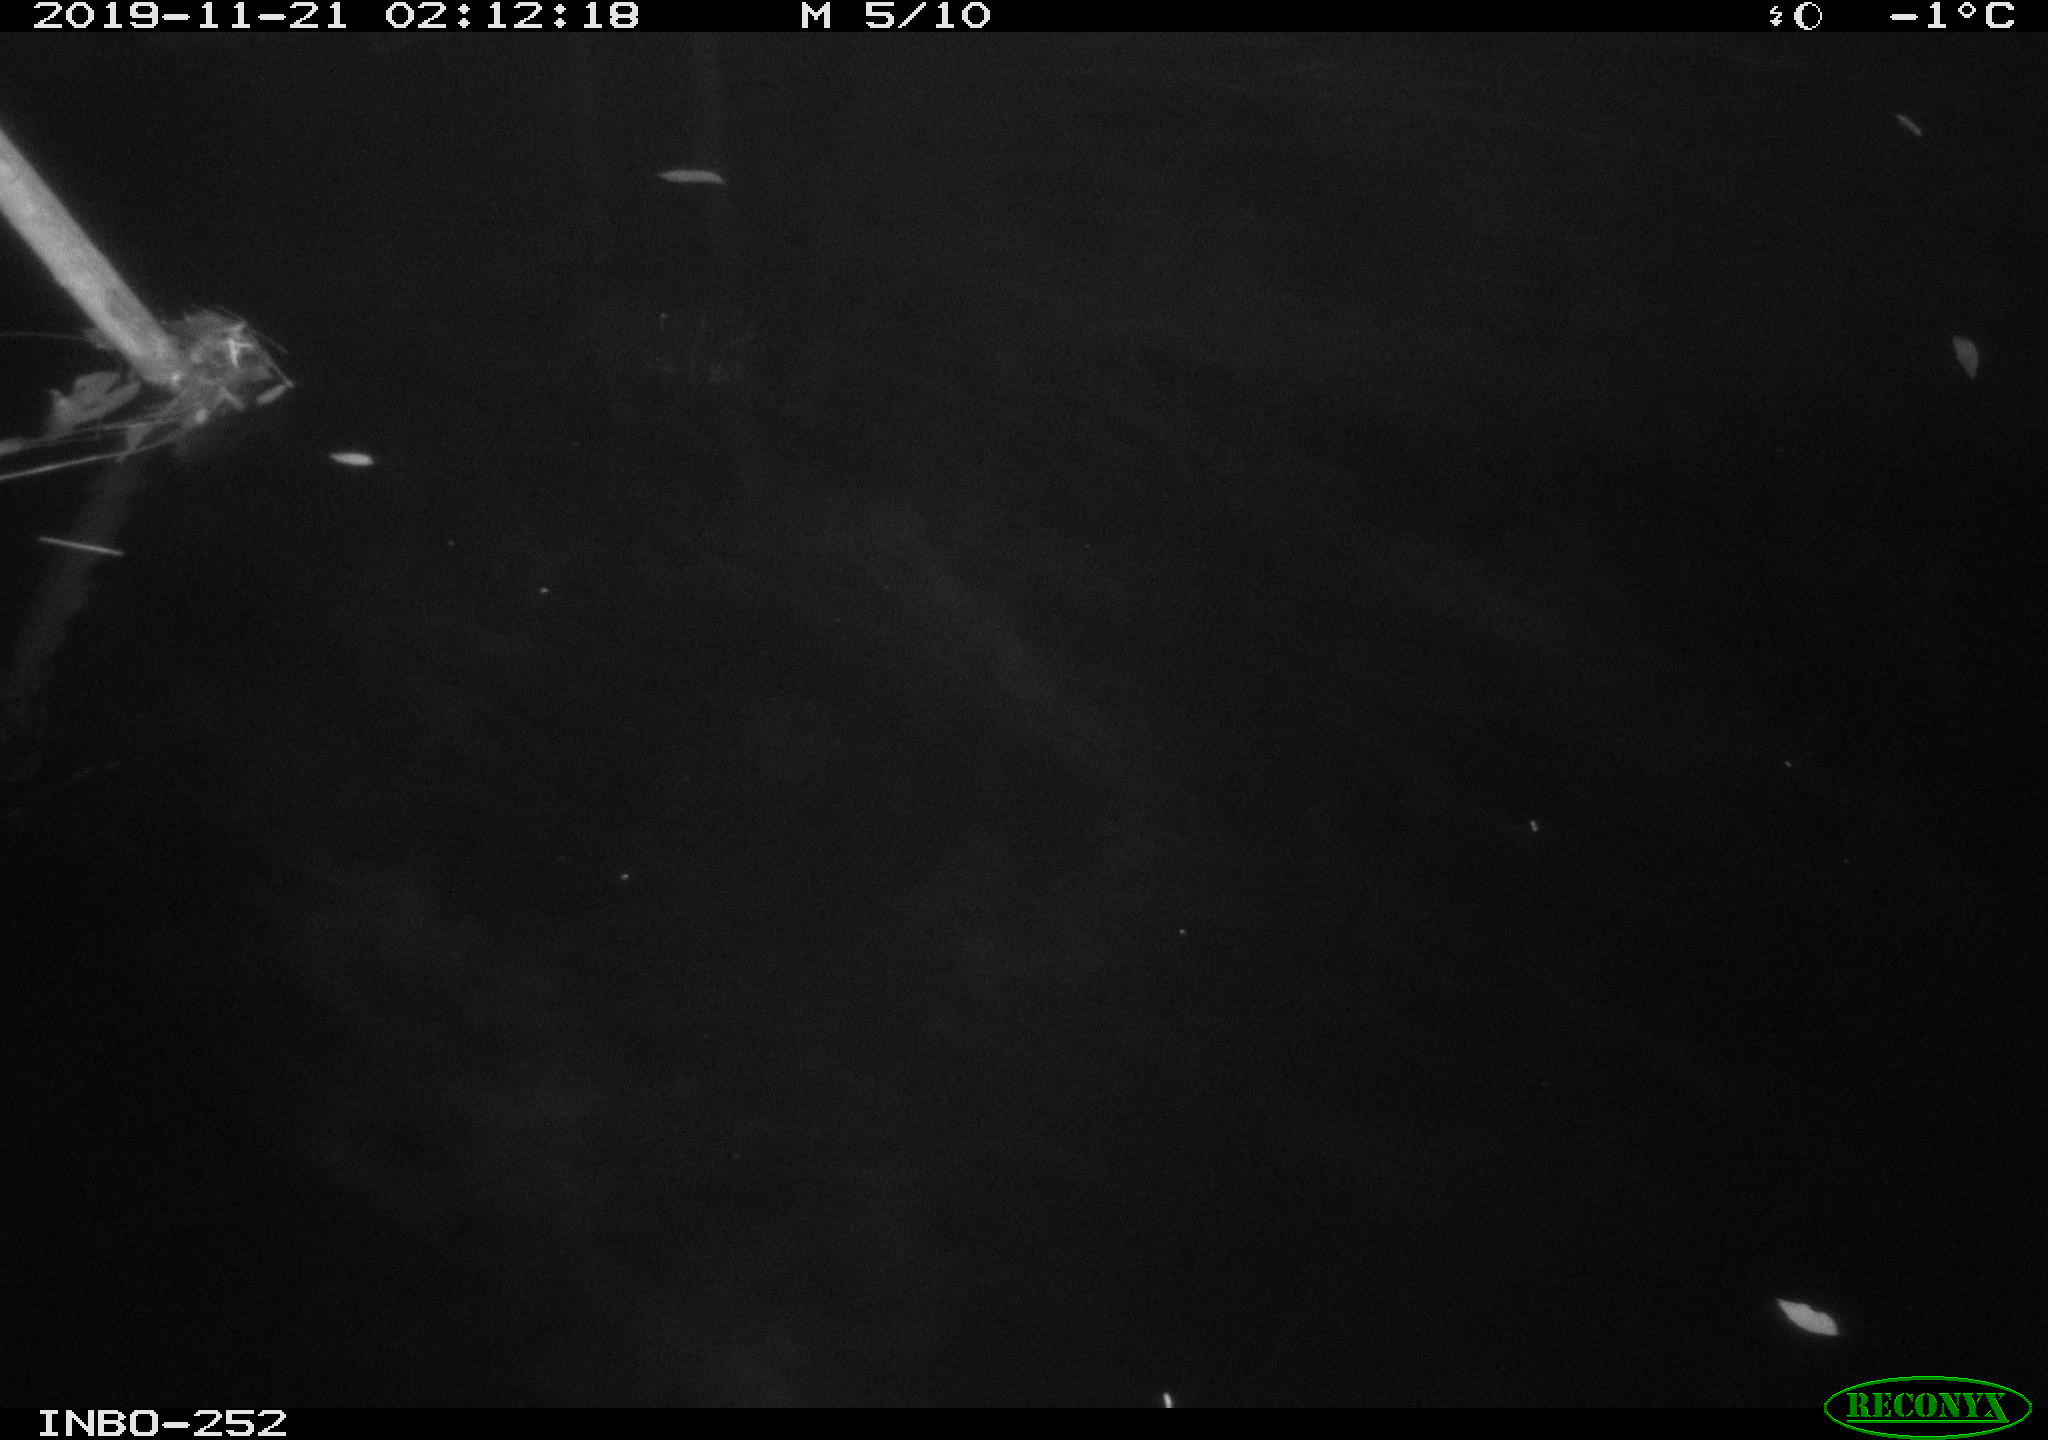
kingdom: Animalia
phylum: Chordata
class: Aves
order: Anseriformes
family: Anatidae
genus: Anas
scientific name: Anas platyrhynchos
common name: Mallard
